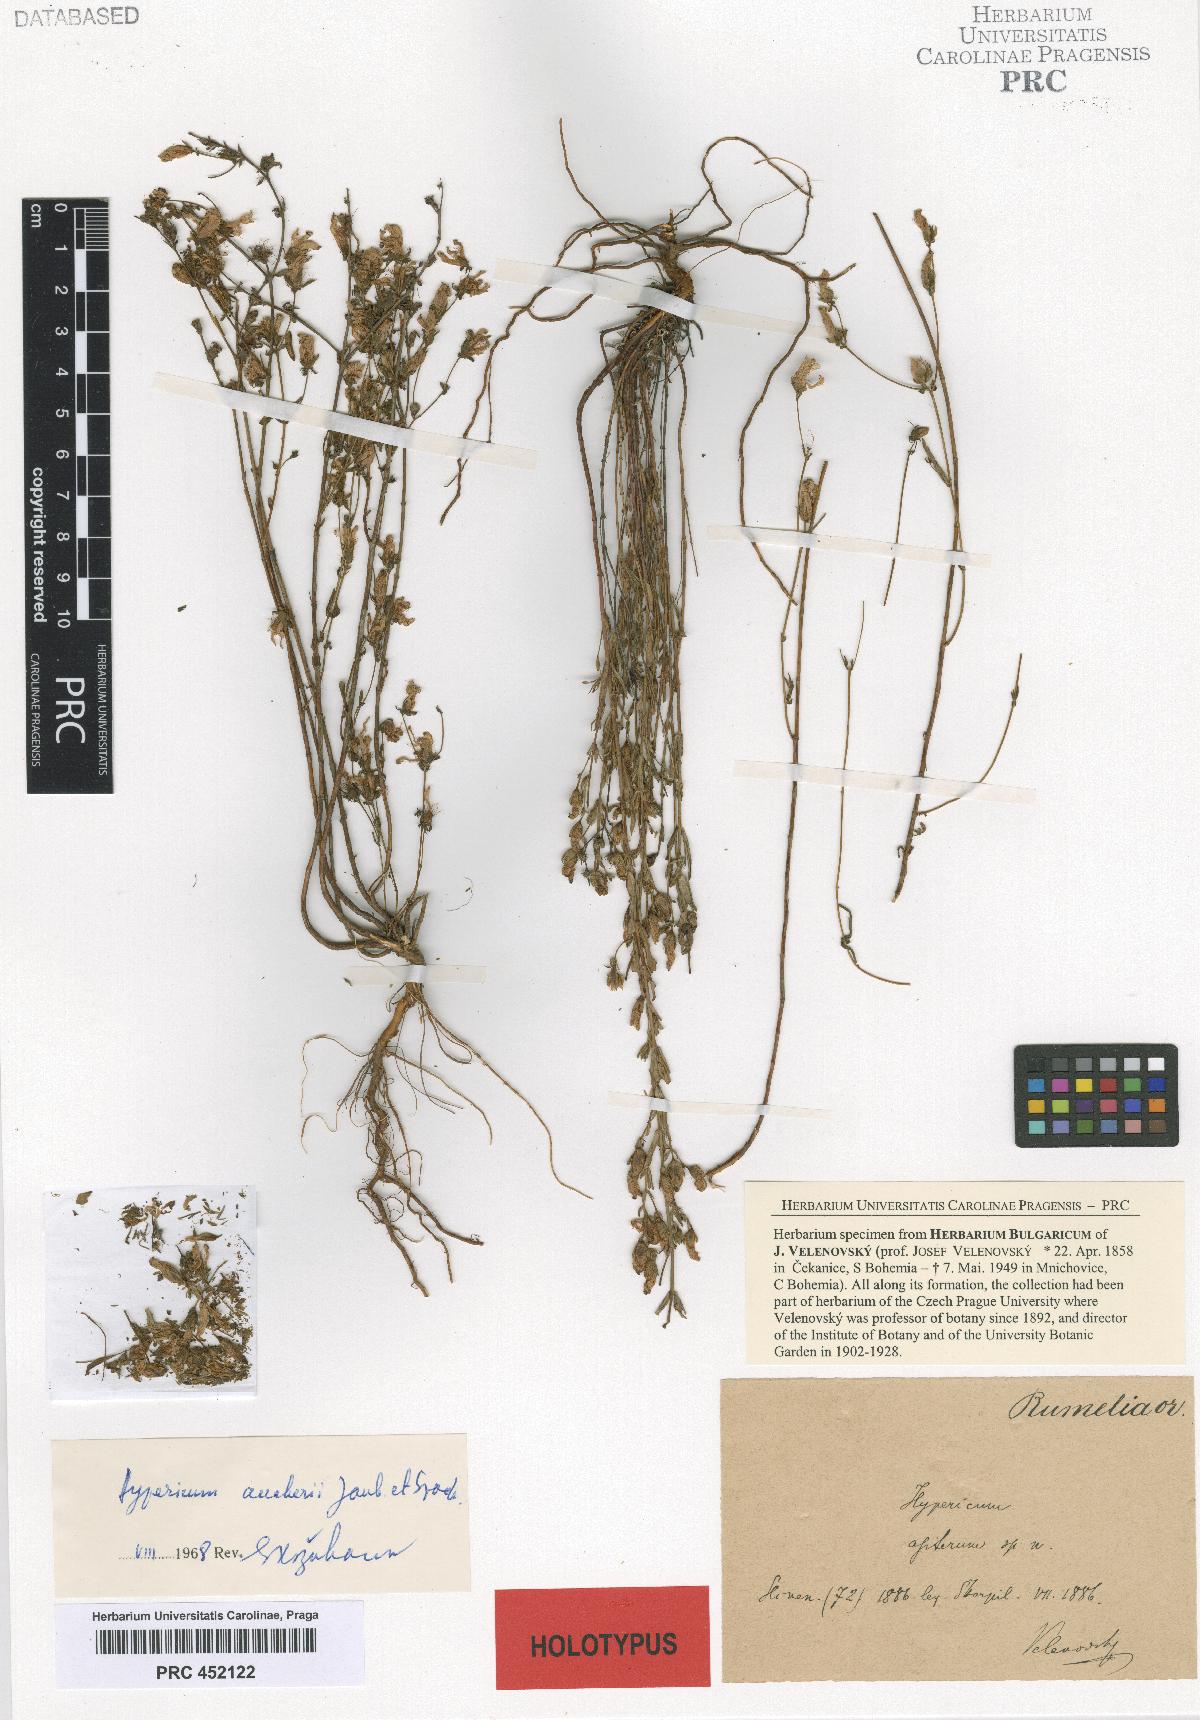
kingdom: Plantae
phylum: Tracheophyta
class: Magnoliopsida
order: Malpighiales
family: Hypericaceae
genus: Hypericum
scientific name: Hypericum aucheri
